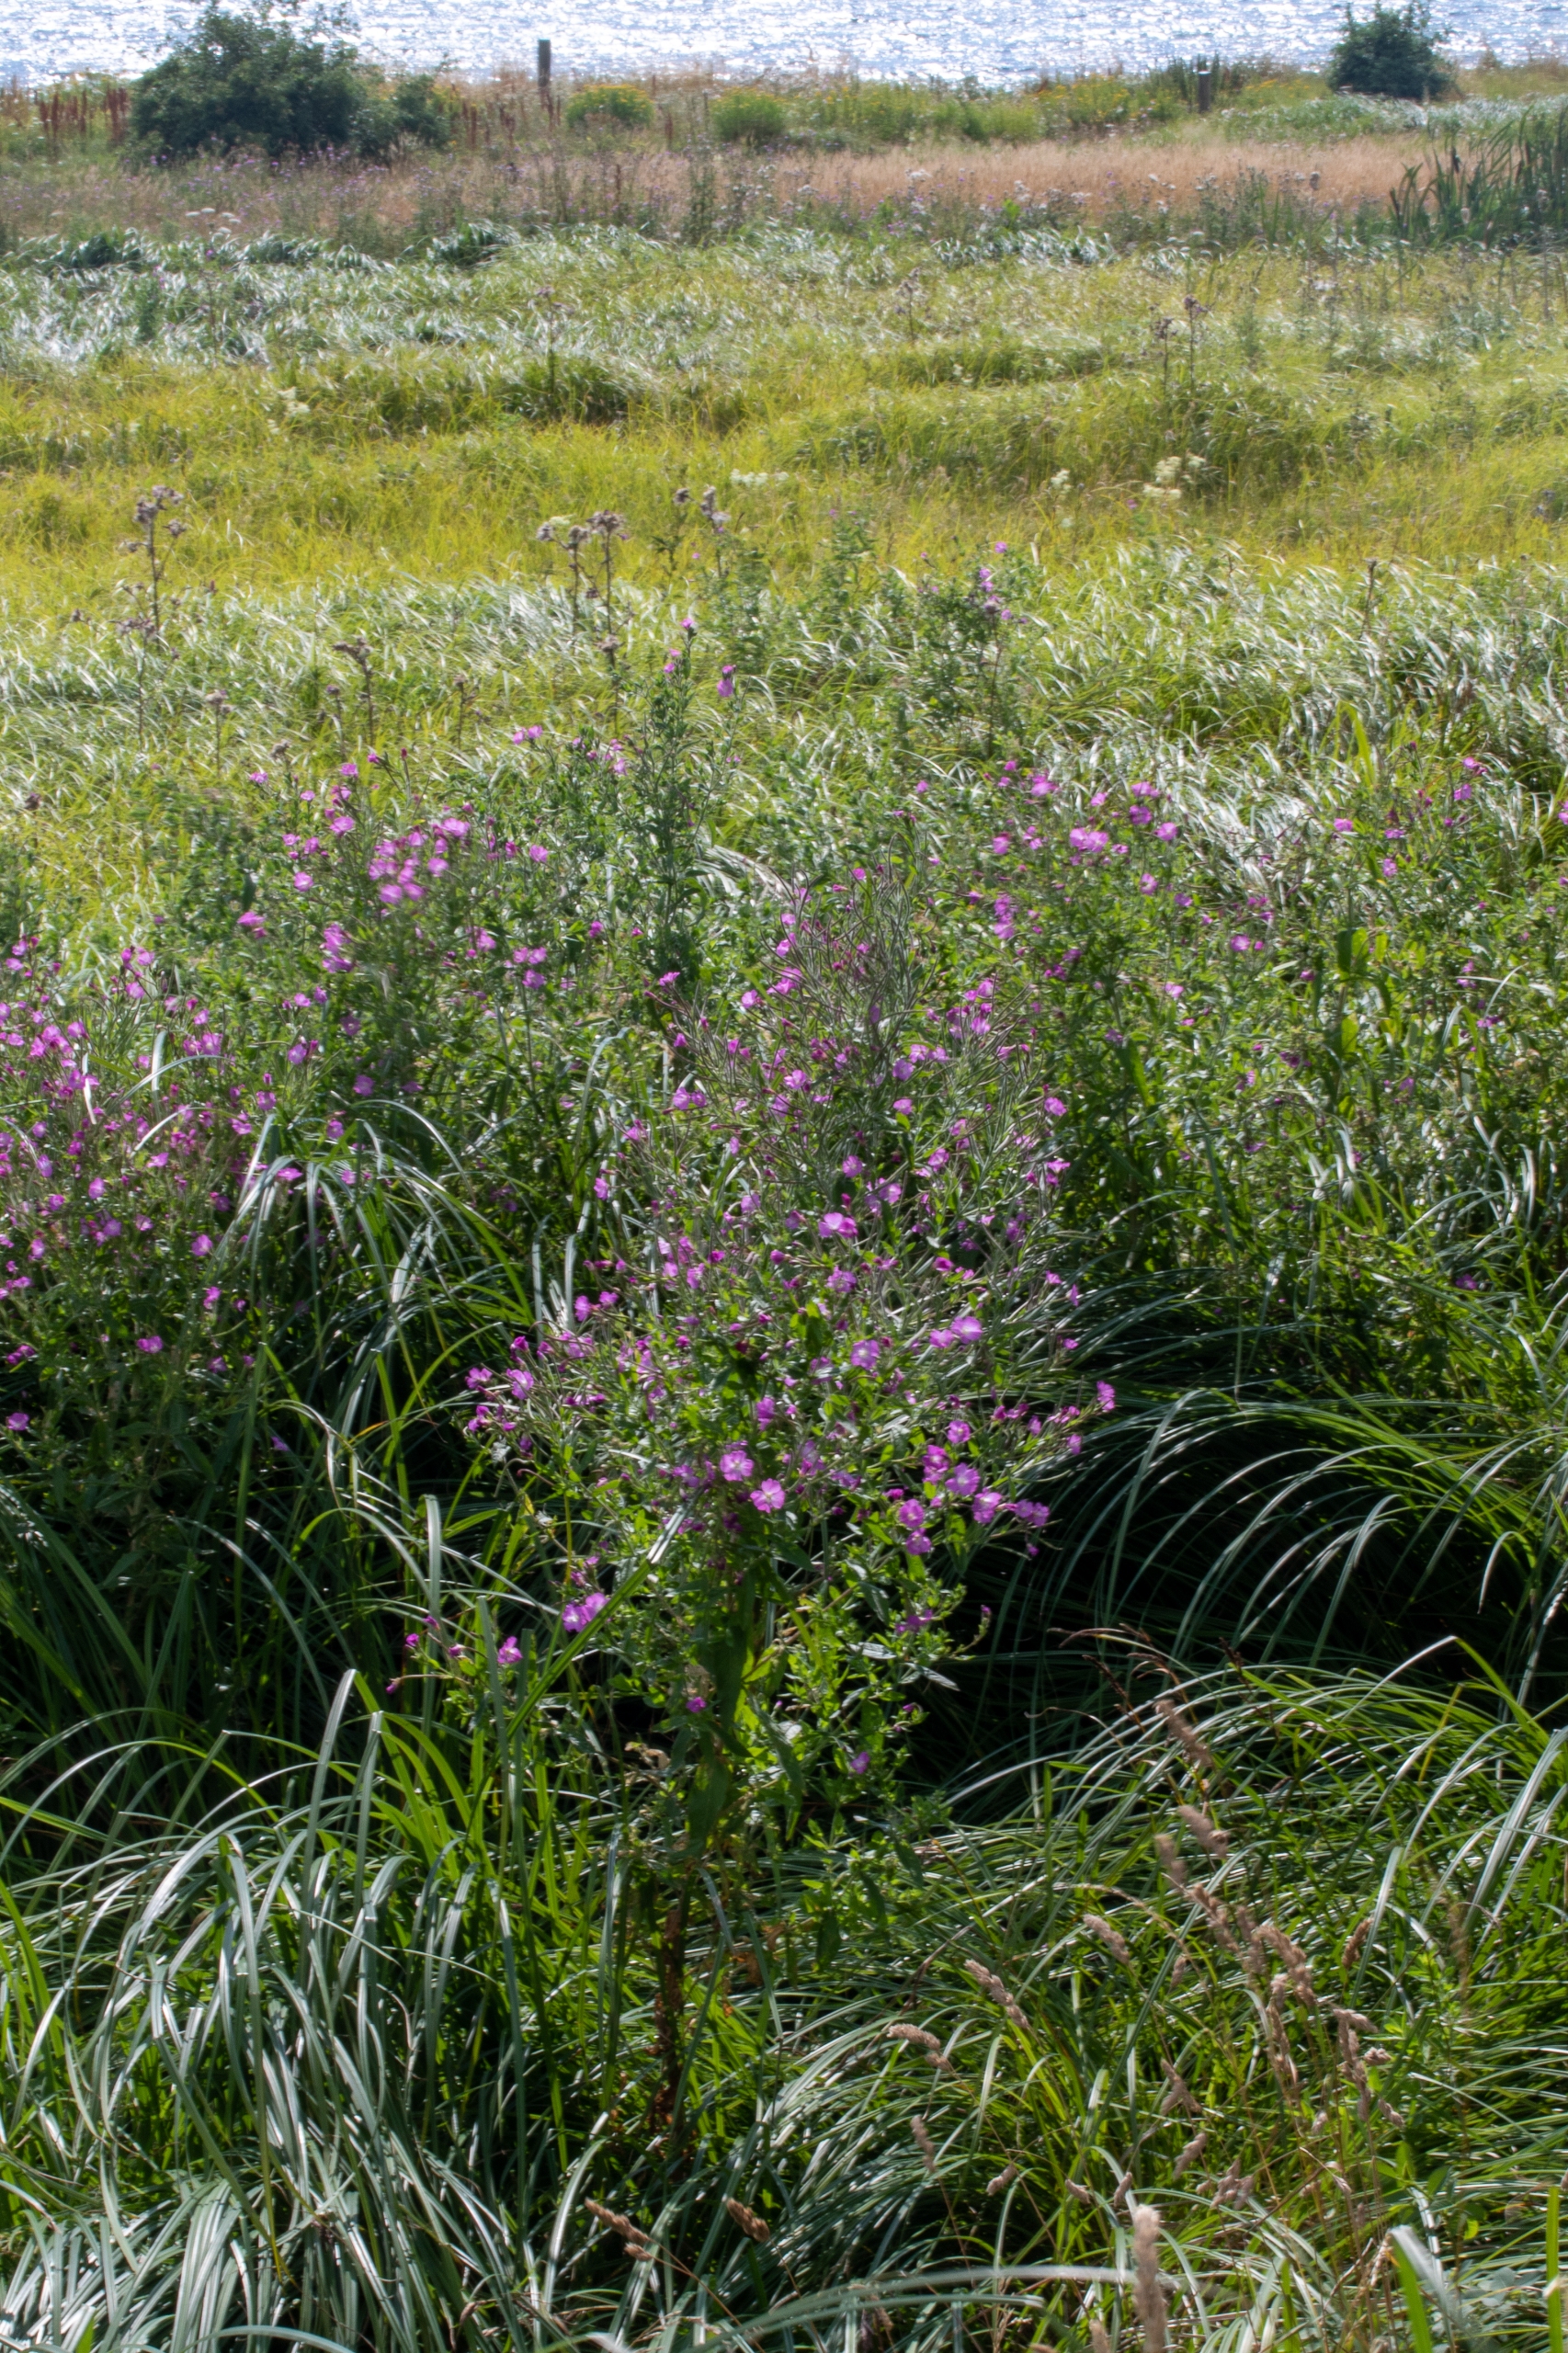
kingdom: Plantae
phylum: Tracheophyta
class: Magnoliopsida
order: Myrtales
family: Onagraceae
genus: Epilobium
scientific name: Epilobium hirsutum
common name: Lådden dueurt
